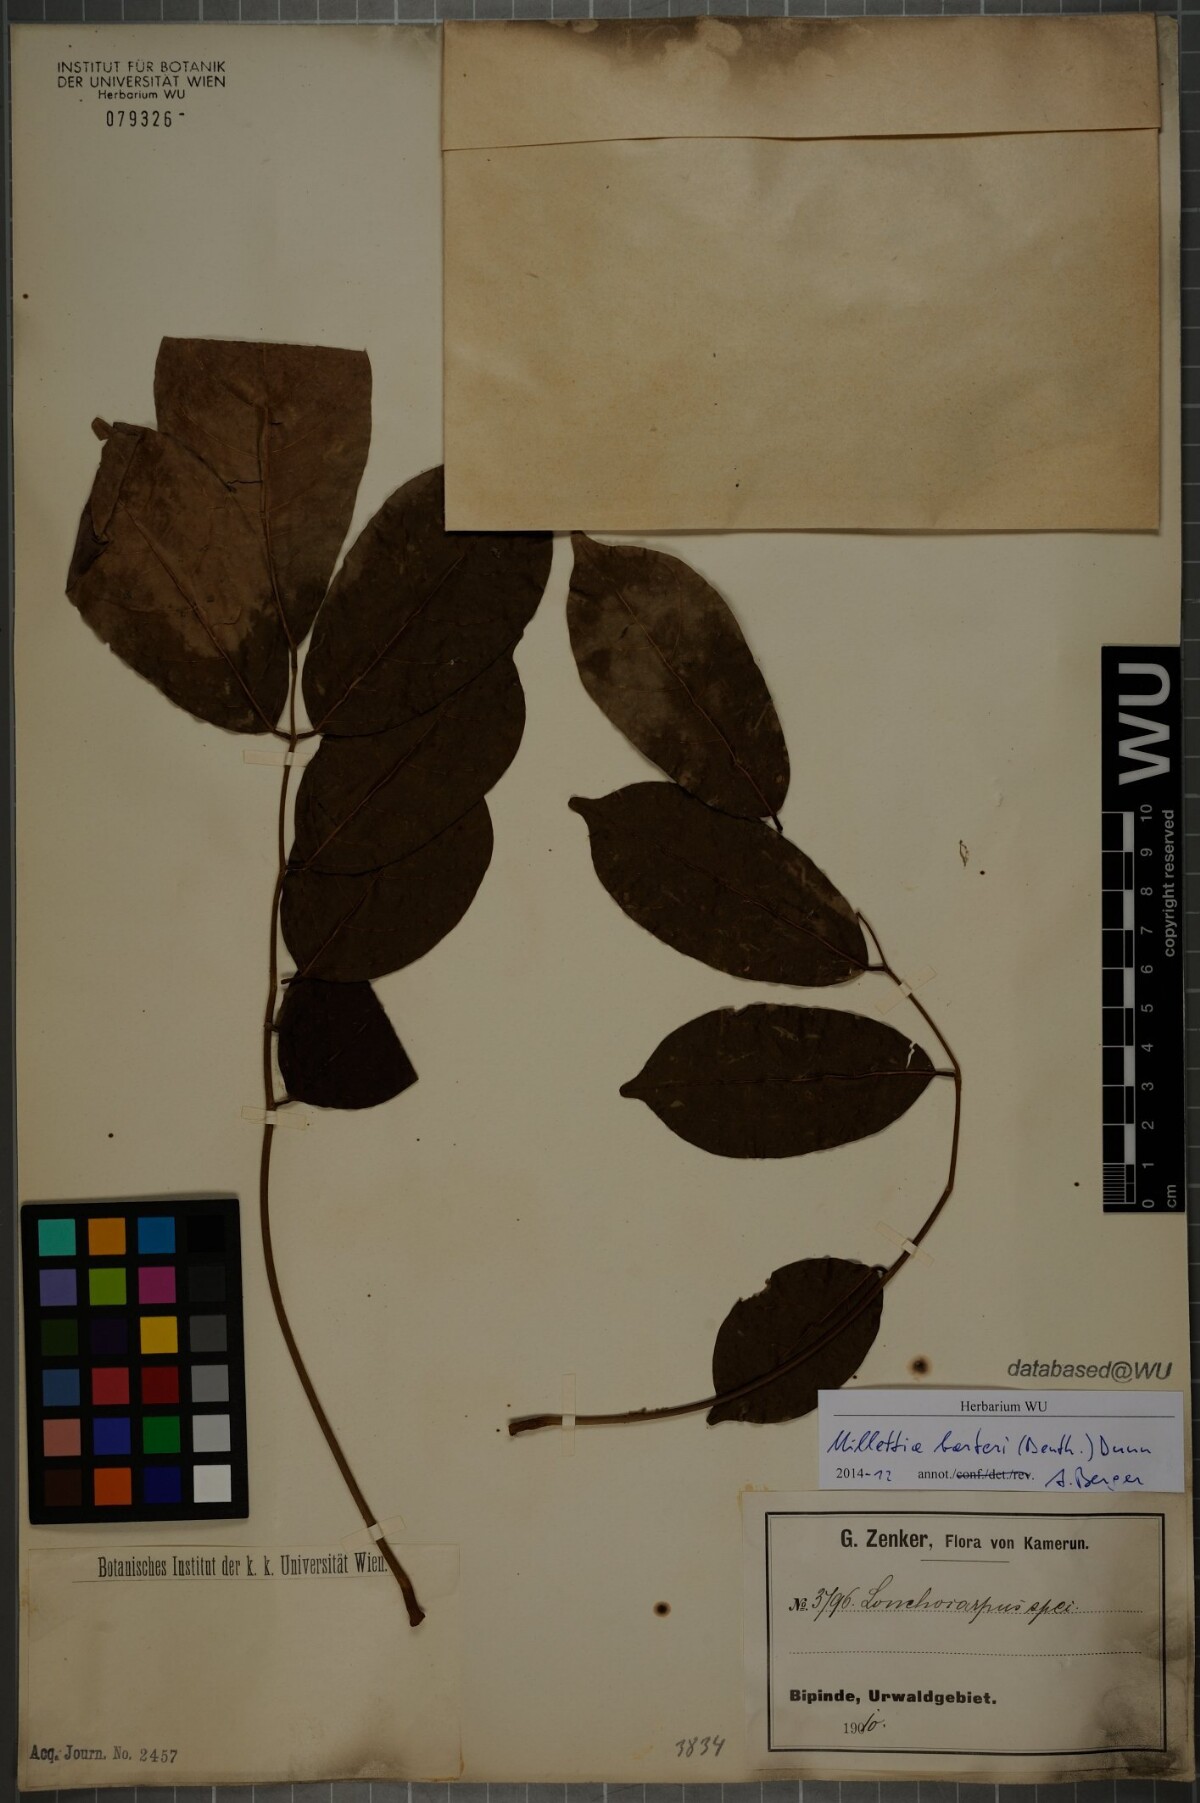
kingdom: Plantae
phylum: Tracheophyta
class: Magnoliopsida
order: Fabales
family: Fabaceae
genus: Millettia
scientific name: Millettia barteri
